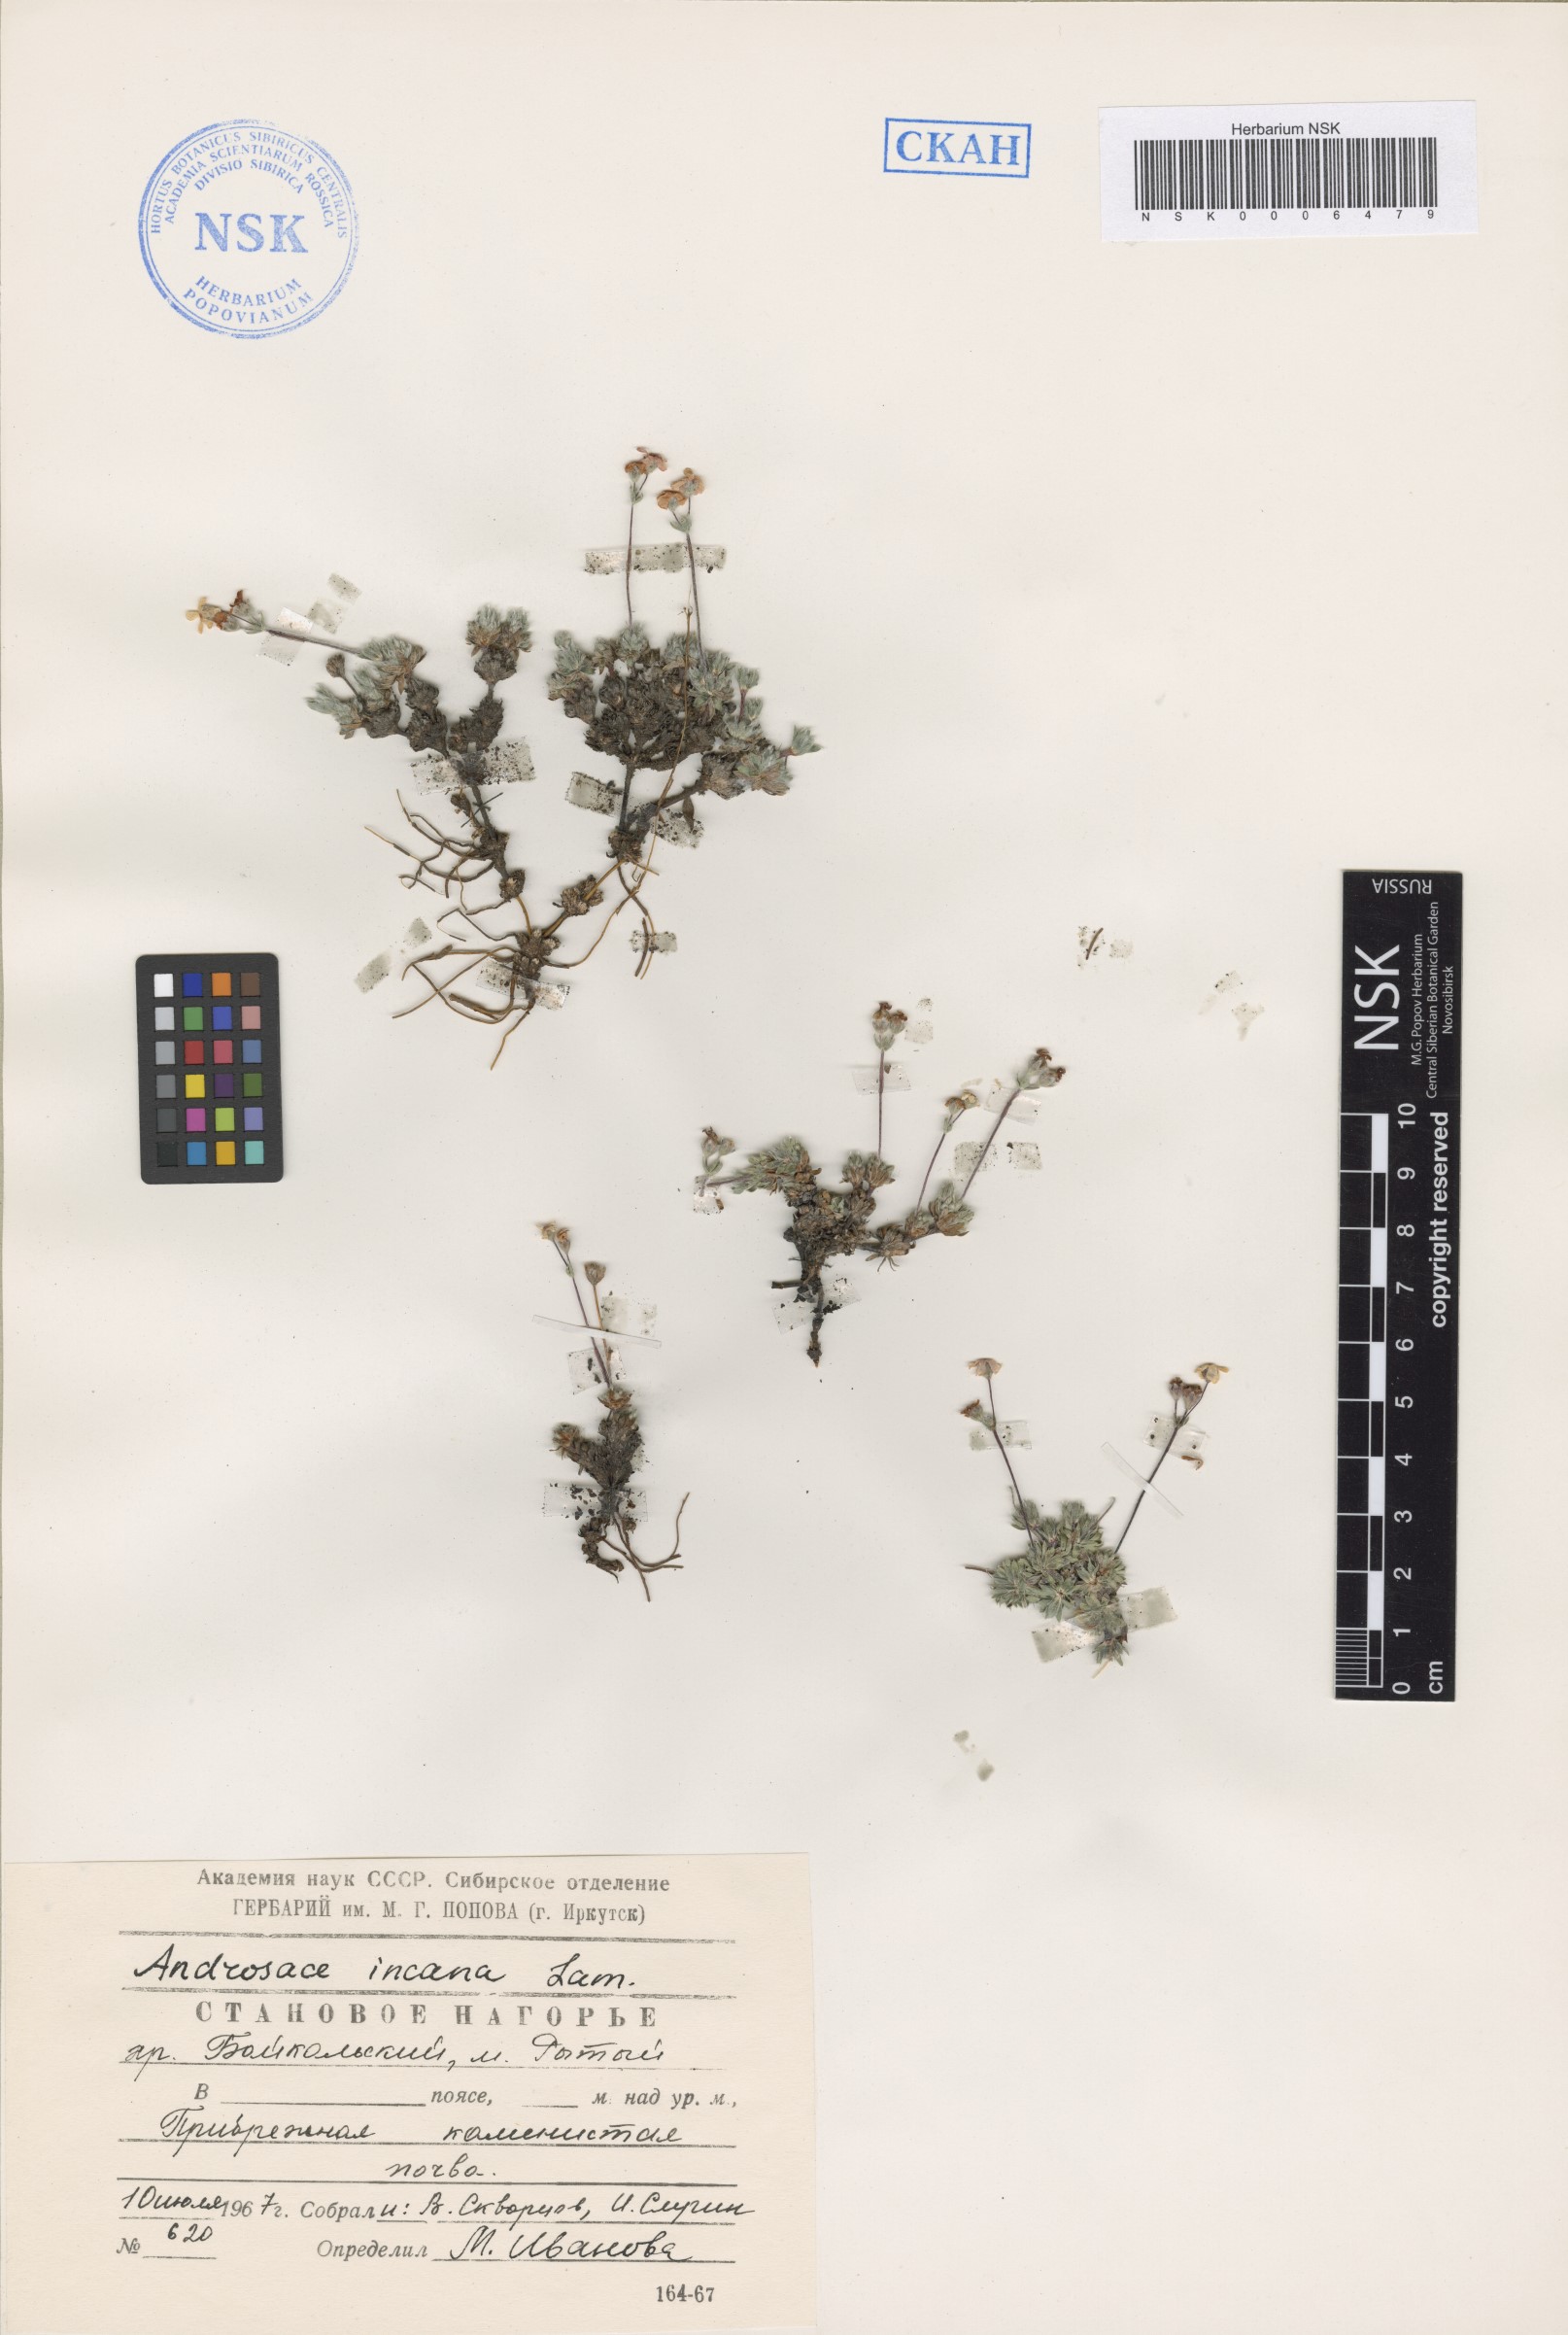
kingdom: Plantae
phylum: Tracheophyta
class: Magnoliopsida
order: Ericales
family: Primulaceae
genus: Androsace
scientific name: Androsace incana
